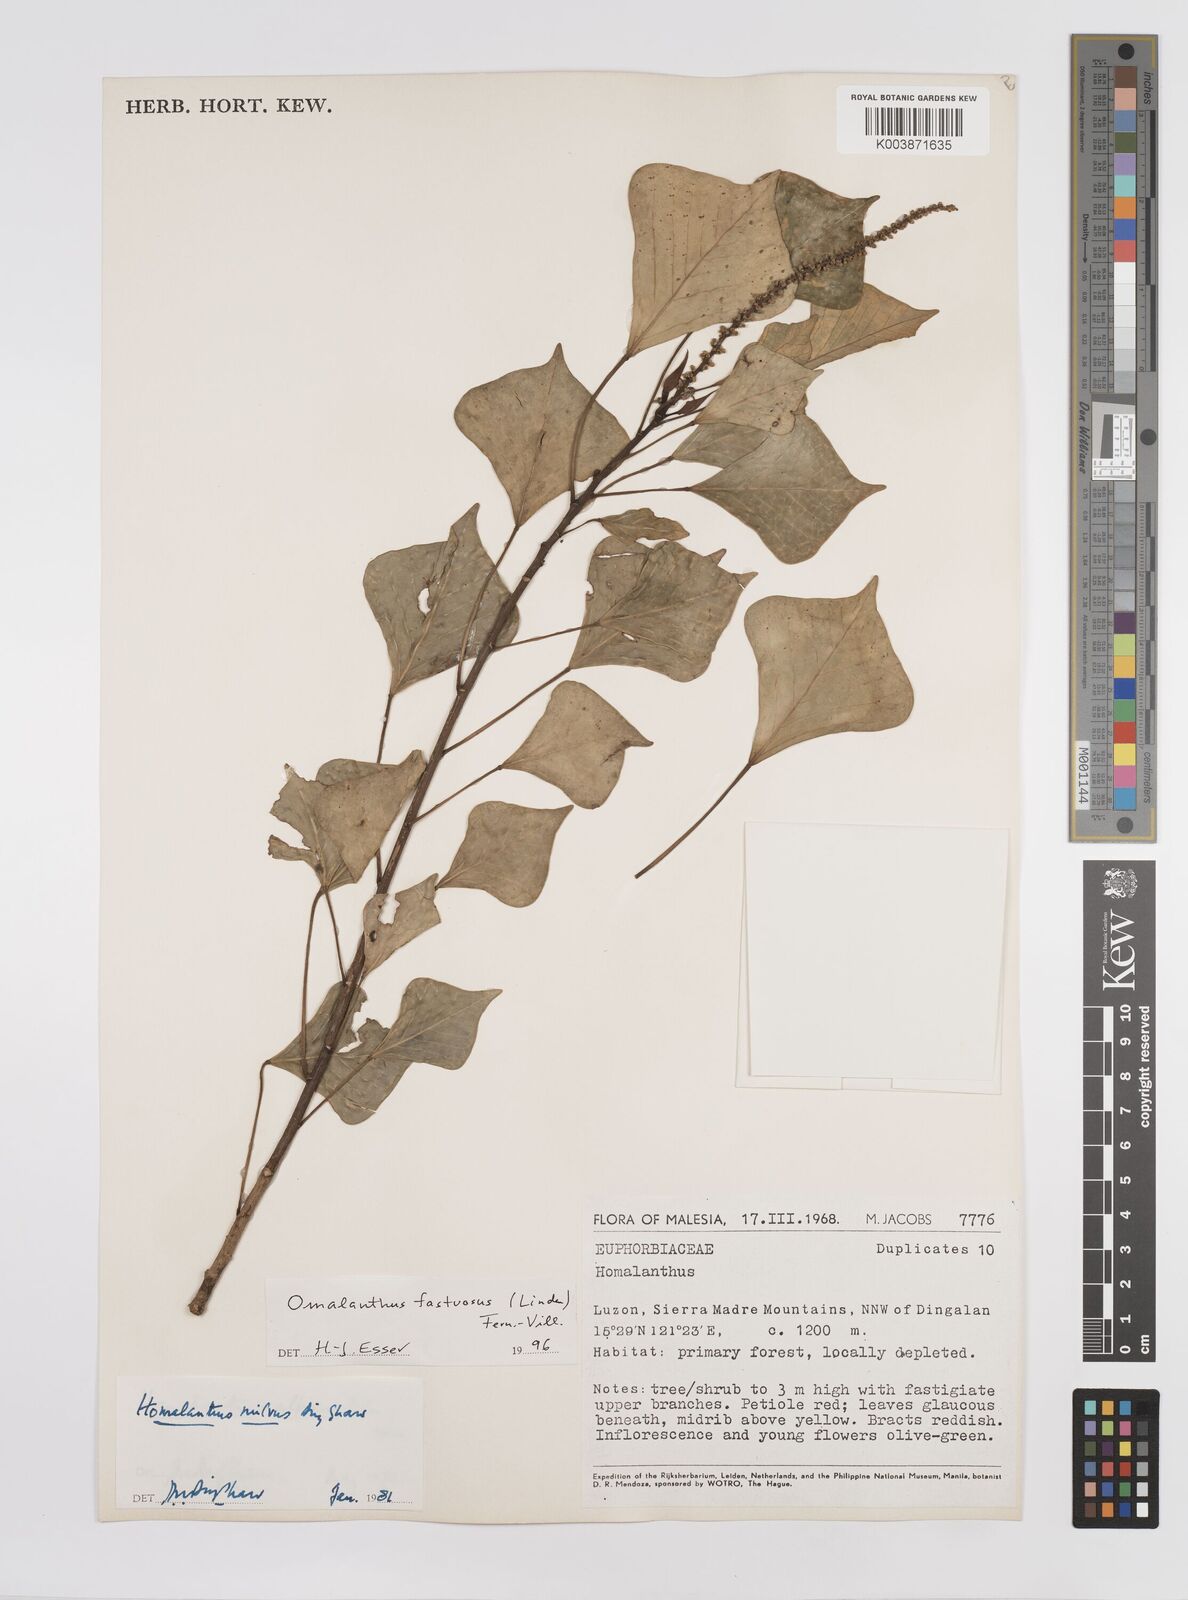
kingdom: Plantae
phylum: Tracheophyta
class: Magnoliopsida
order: Malpighiales
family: Euphorbiaceae
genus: Homalanthus
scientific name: Homalanthus fastuosus
